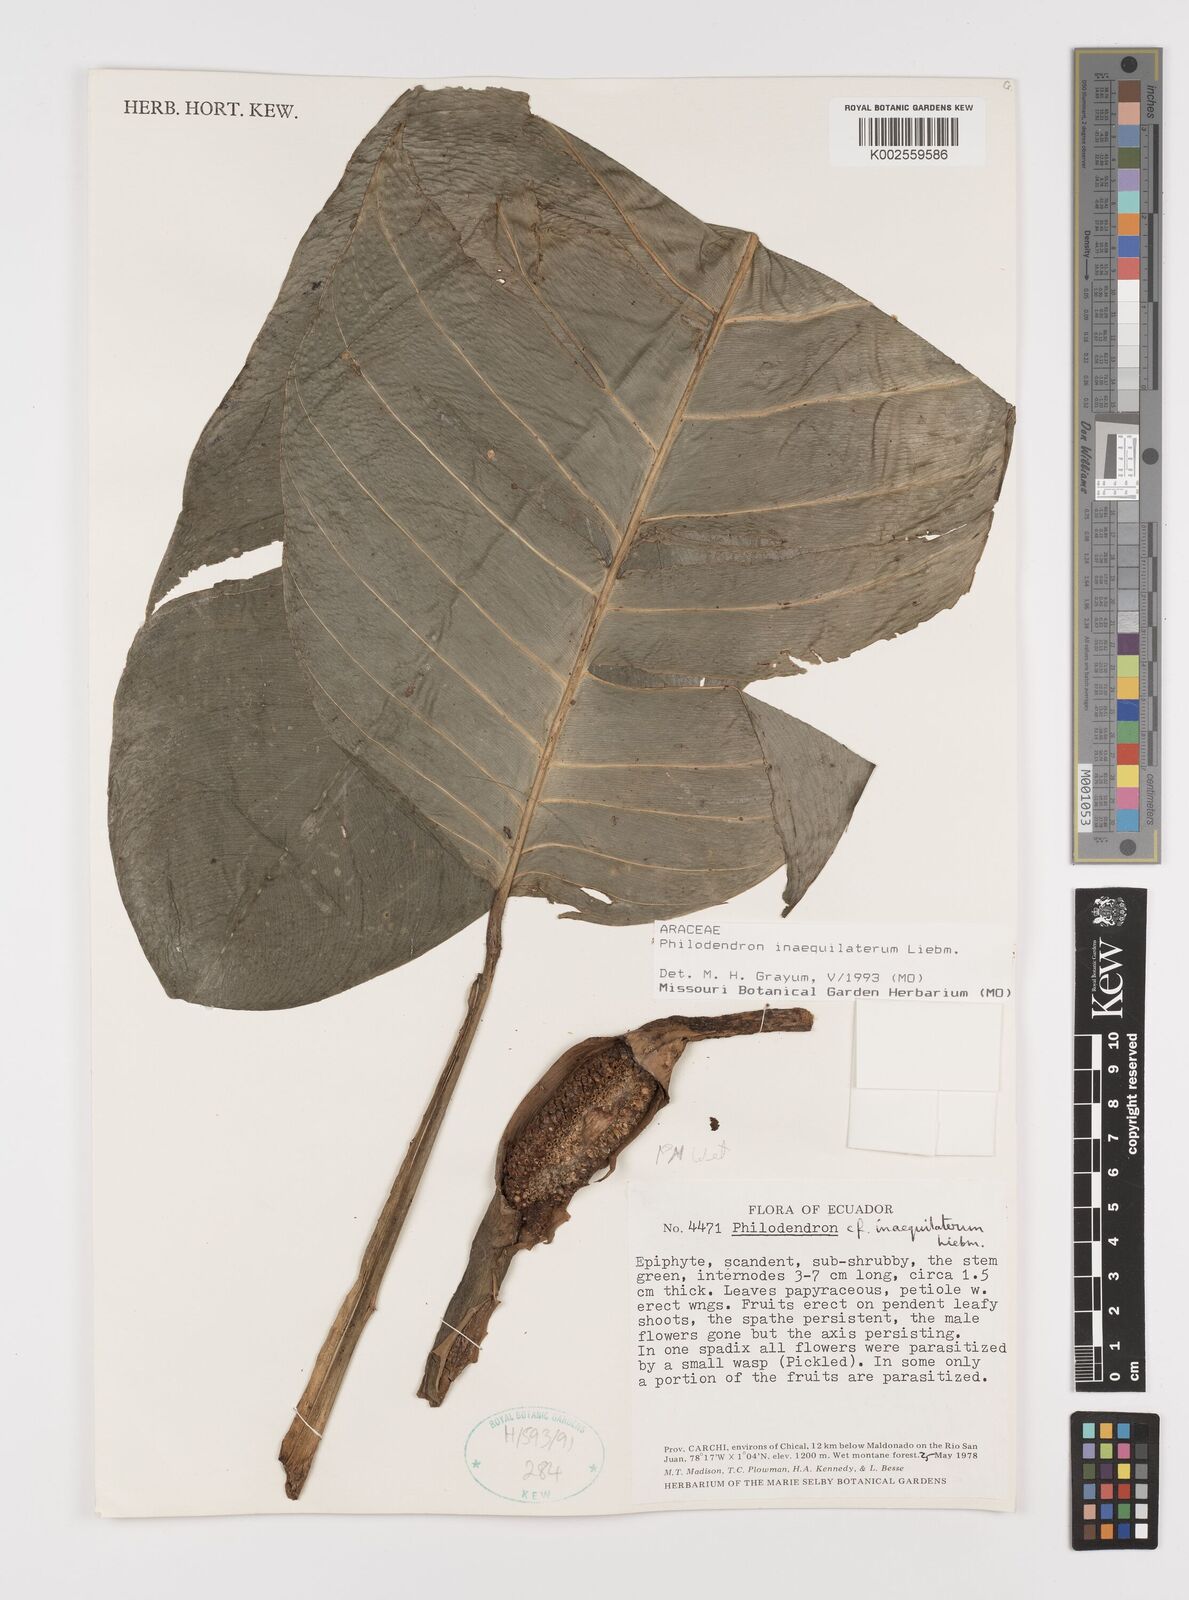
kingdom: Plantae
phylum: Tracheophyta
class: Liliopsida
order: Alismatales
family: Araceae
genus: Philodendron
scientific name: Philodendron inaequilaterum
